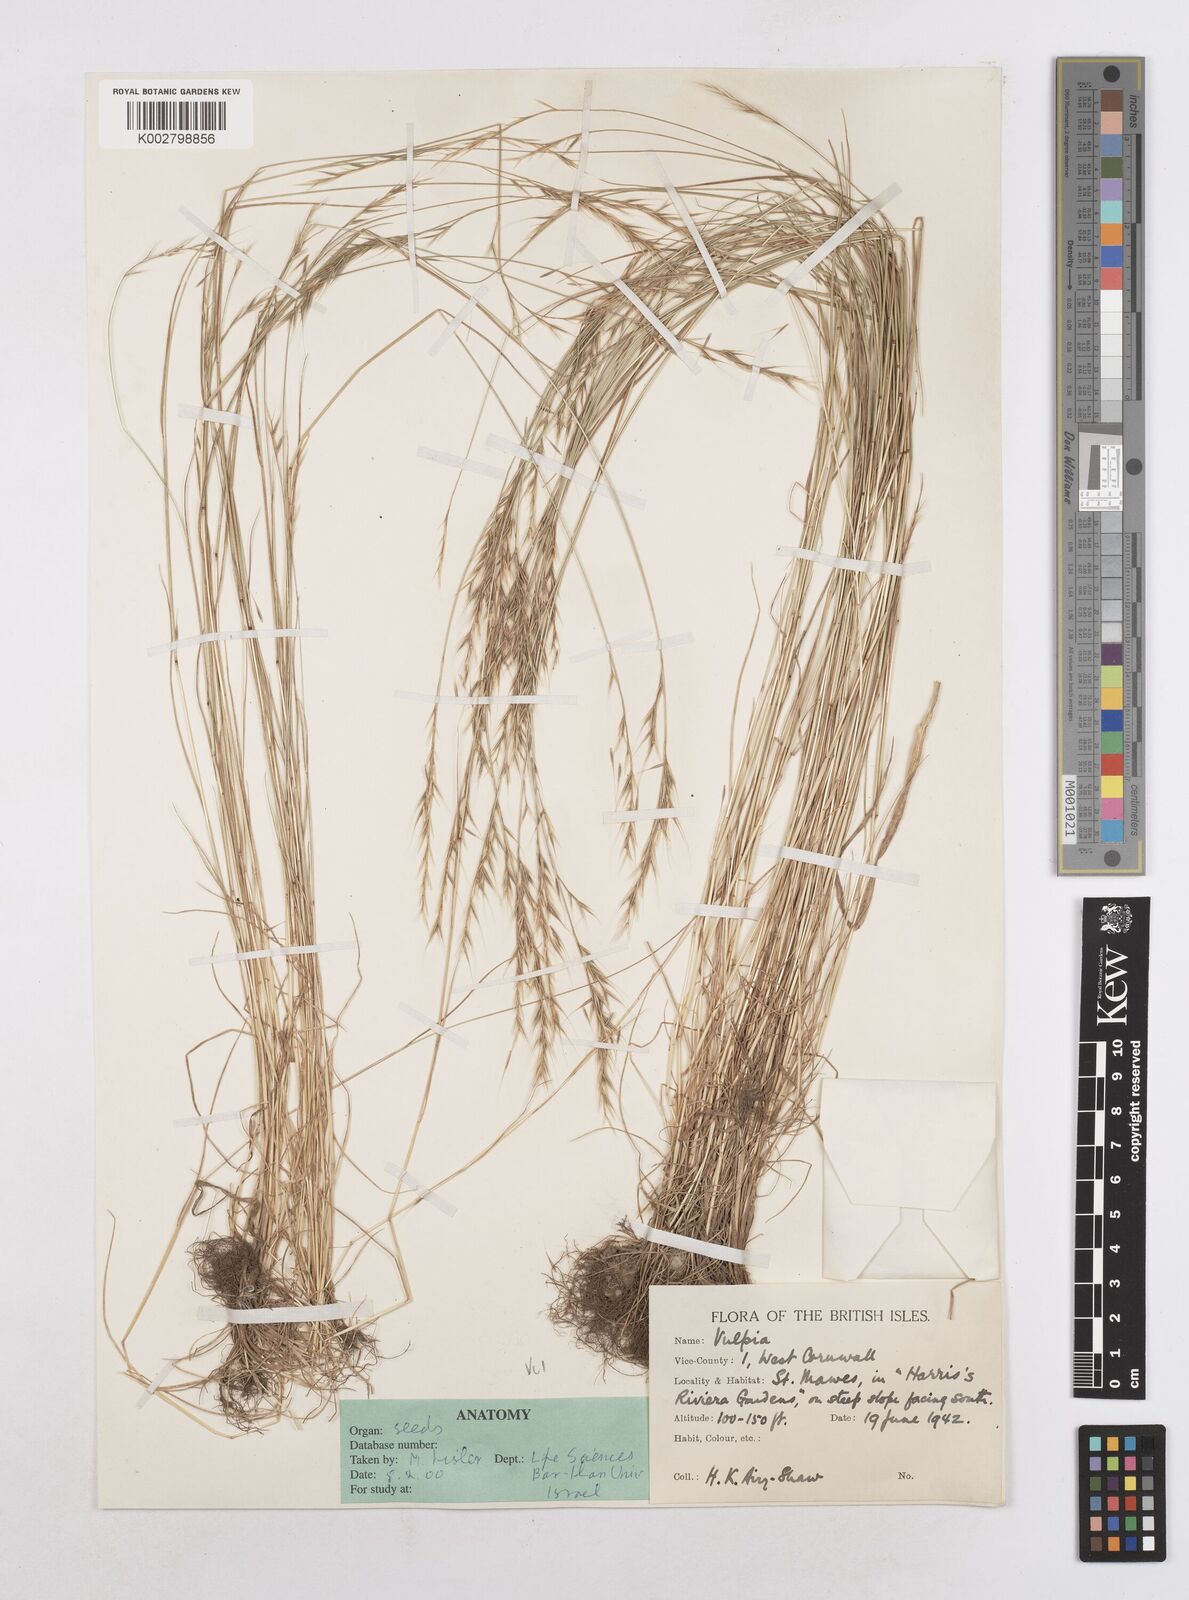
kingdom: Plantae
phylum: Tracheophyta
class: Liliopsida
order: Poales
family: Poaceae
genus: Festuca
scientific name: Festuca bromoides
